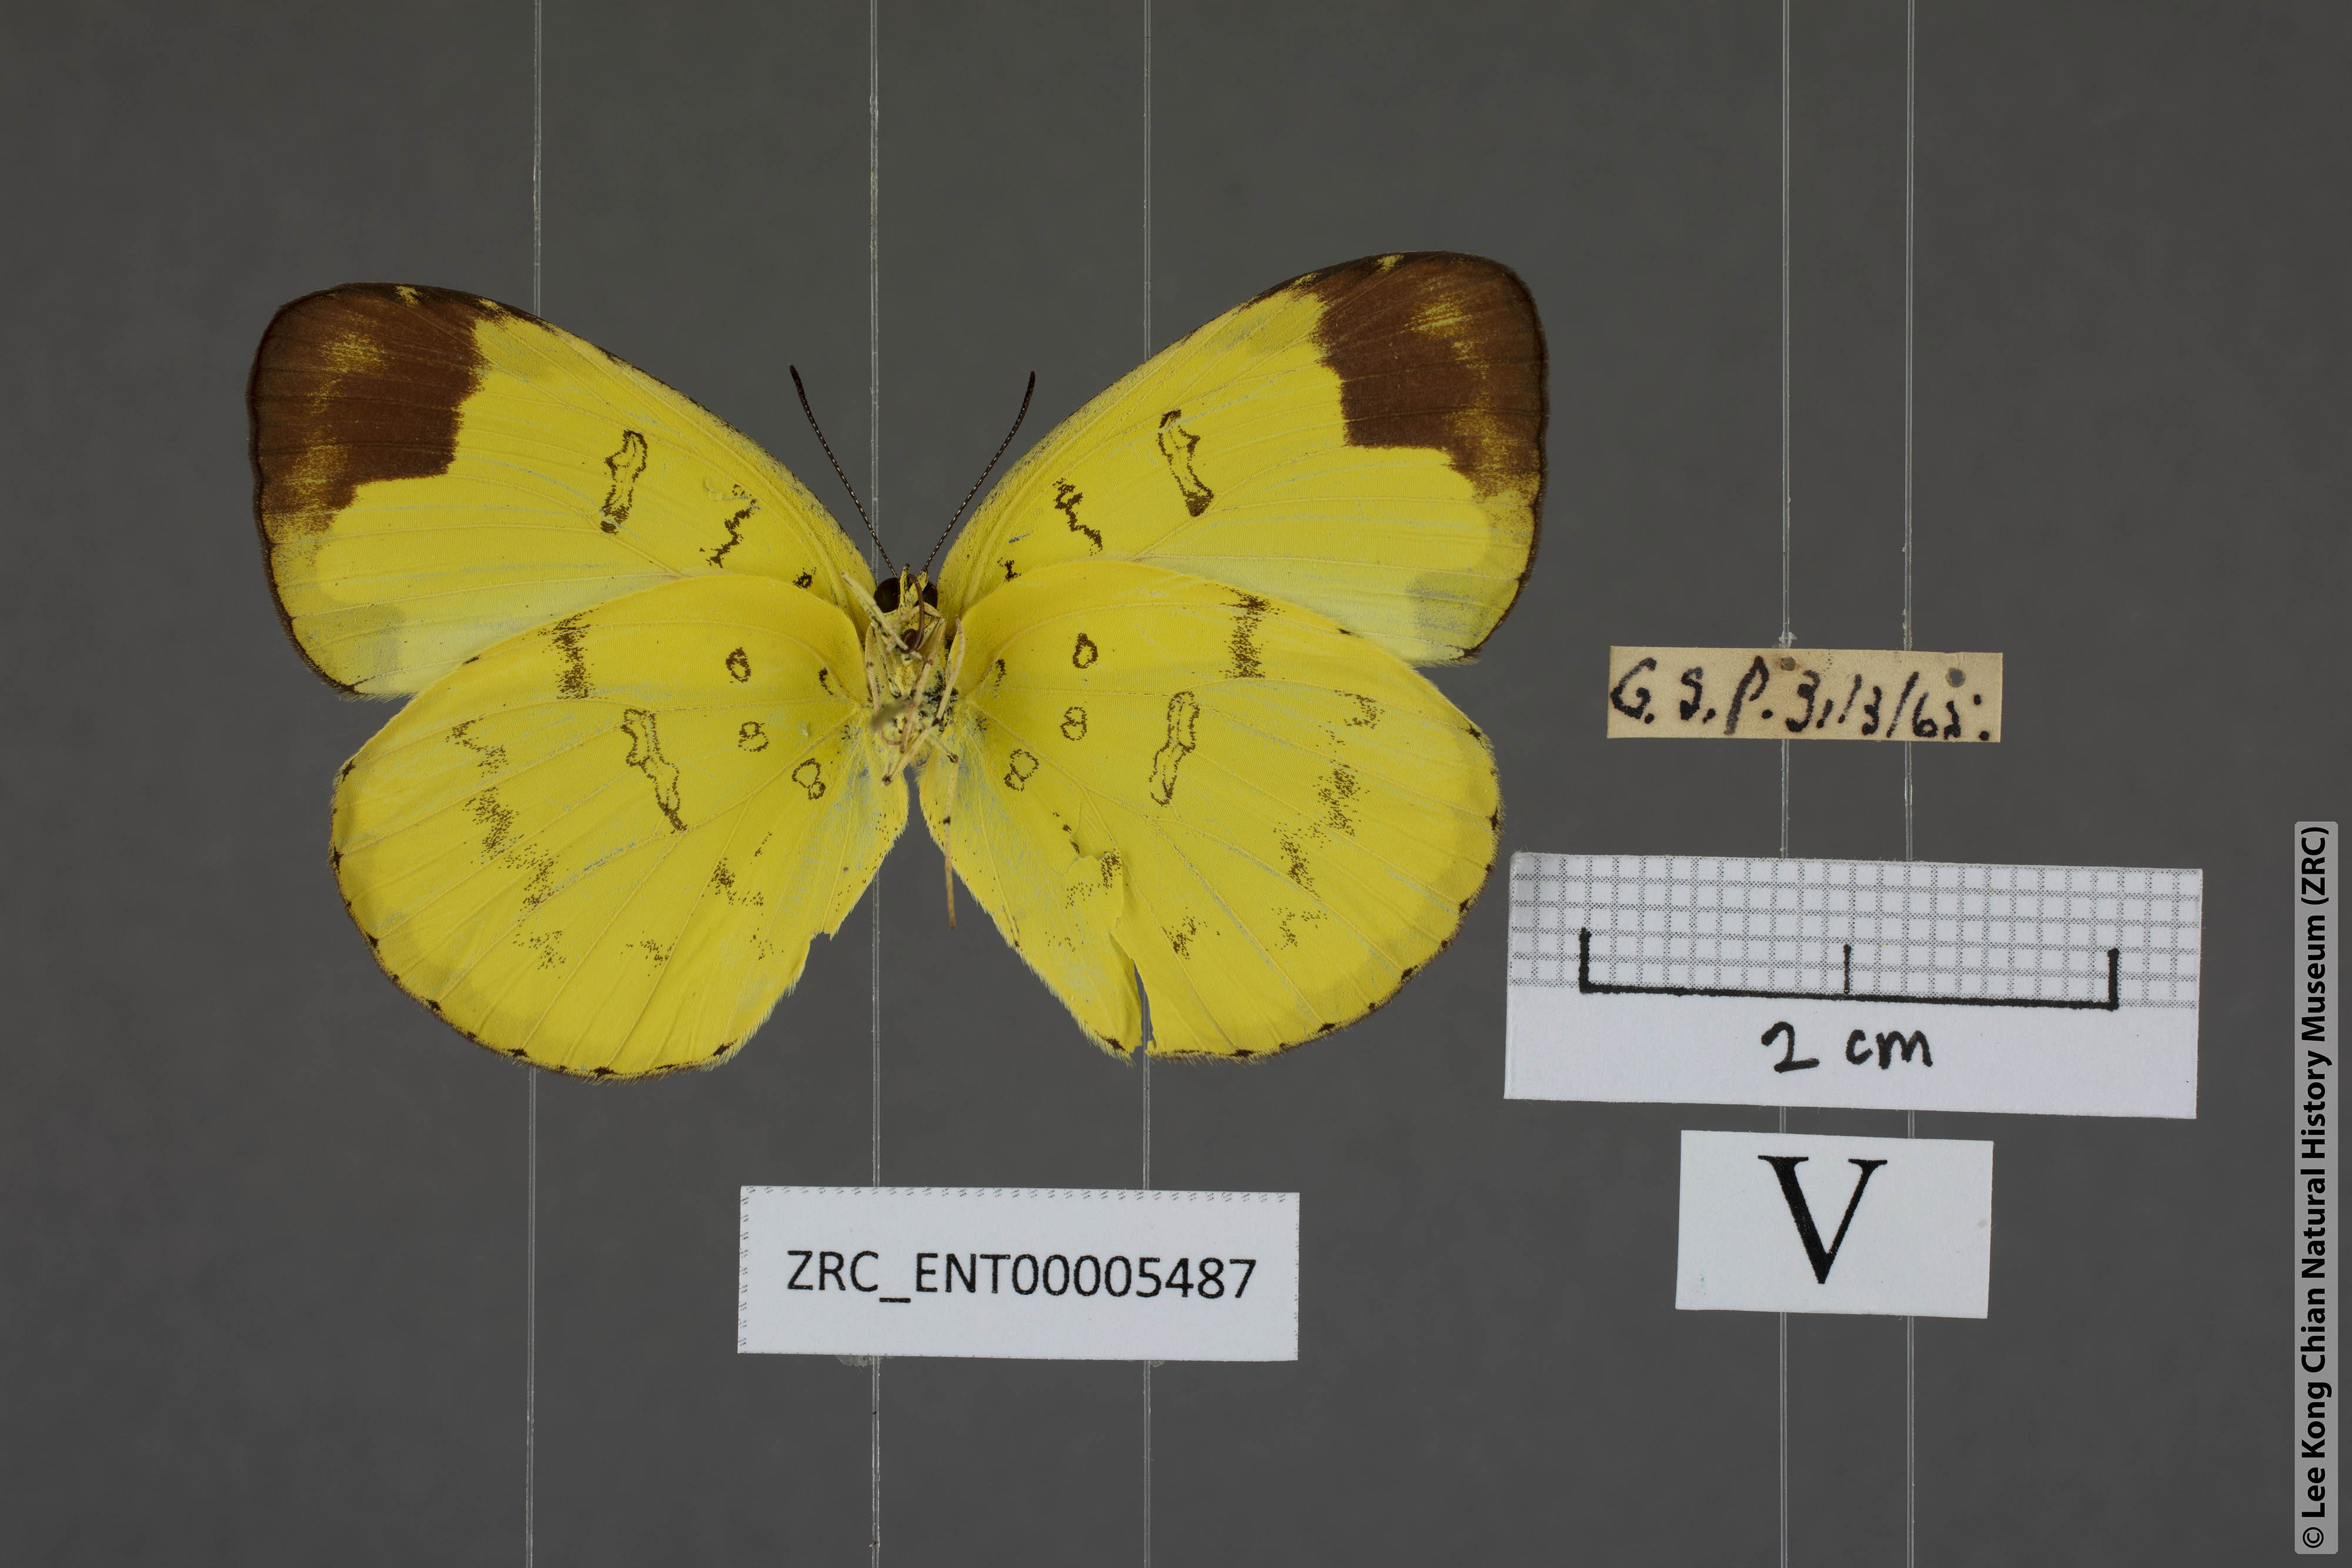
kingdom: Animalia
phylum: Arthropoda
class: Insecta
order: Lepidoptera
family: Pieridae
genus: Eurema
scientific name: Eurema simulatrix
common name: Hill grass yellow
